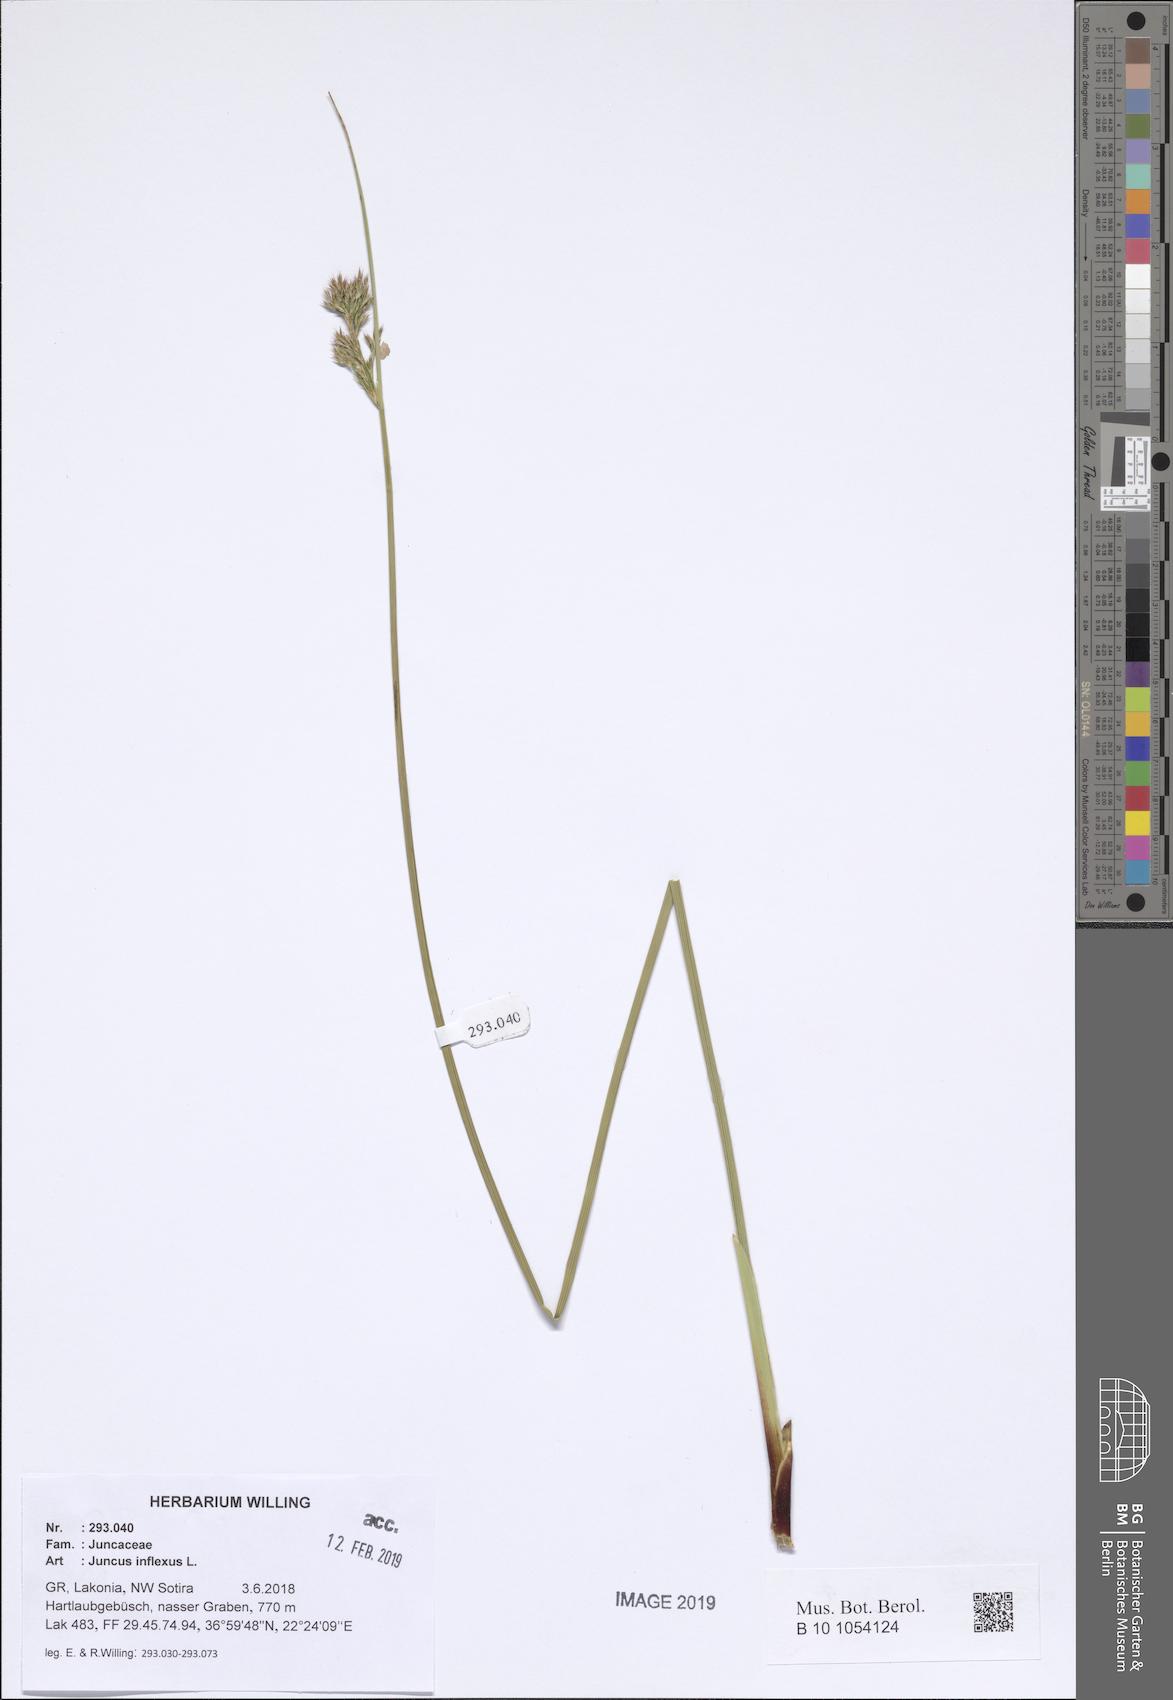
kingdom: Plantae
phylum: Tracheophyta
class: Liliopsida
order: Poales
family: Juncaceae
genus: Juncus
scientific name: Juncus inflexus
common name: Hard rush
